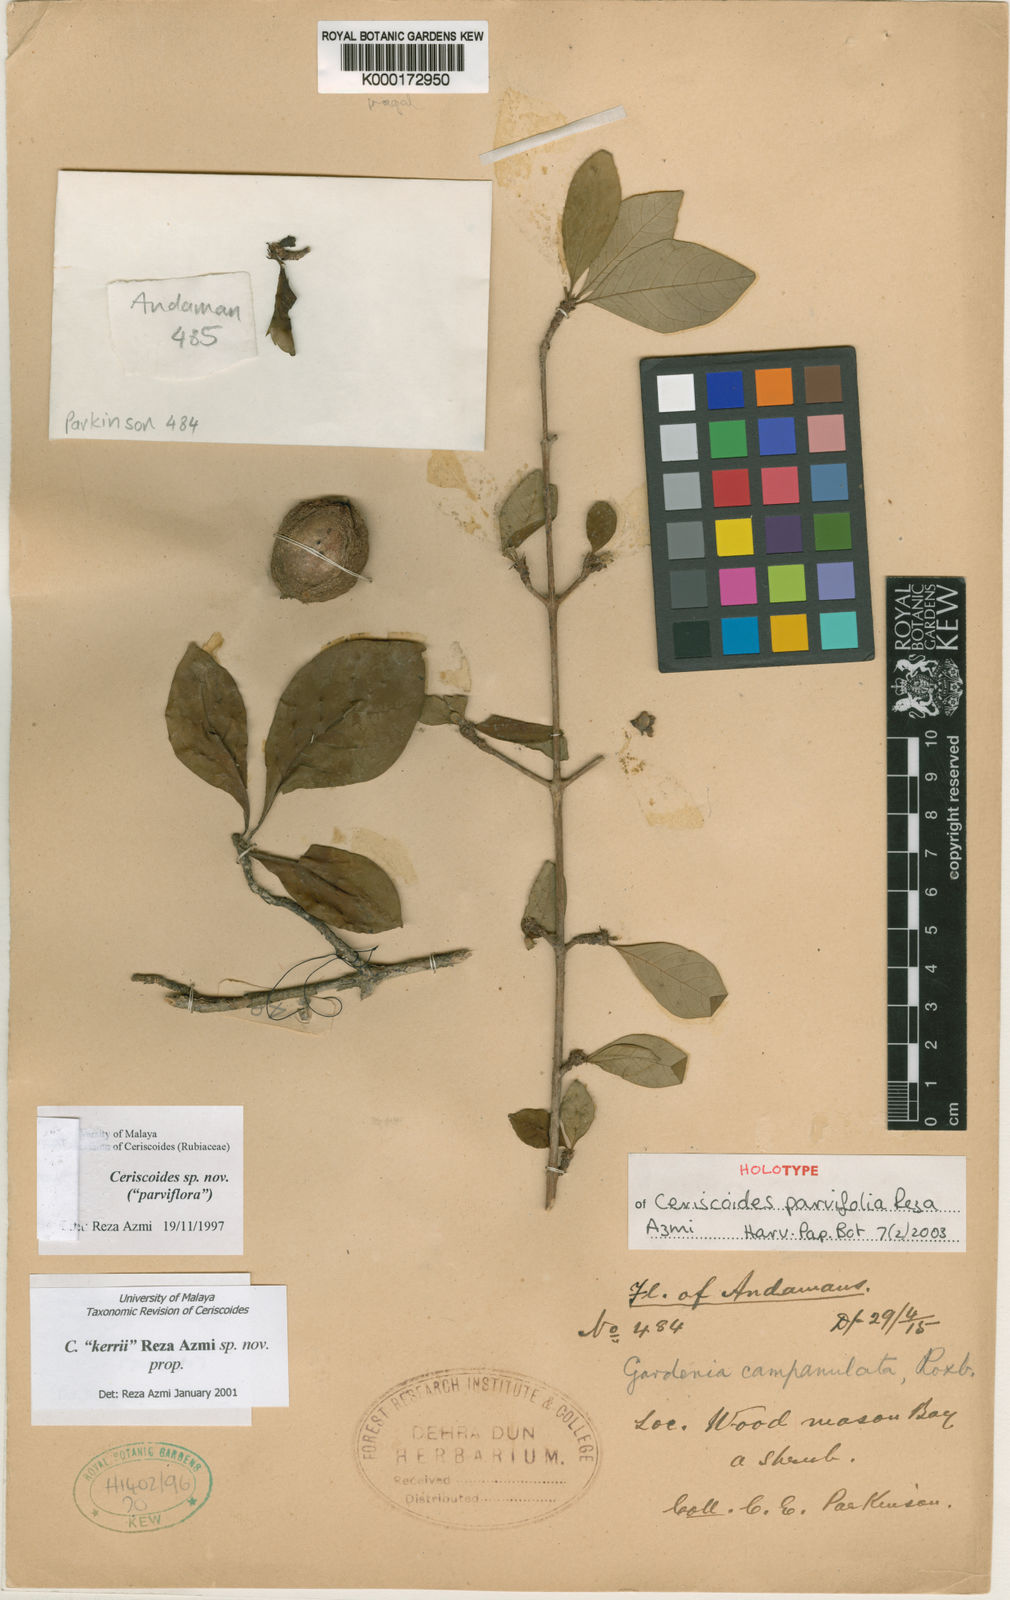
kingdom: Plantae
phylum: Tracheophyta
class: Magnoliopsida
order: Gentianales
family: Rubiaceae
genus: Ceriscoides
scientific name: Ceriscoides parvifolia
